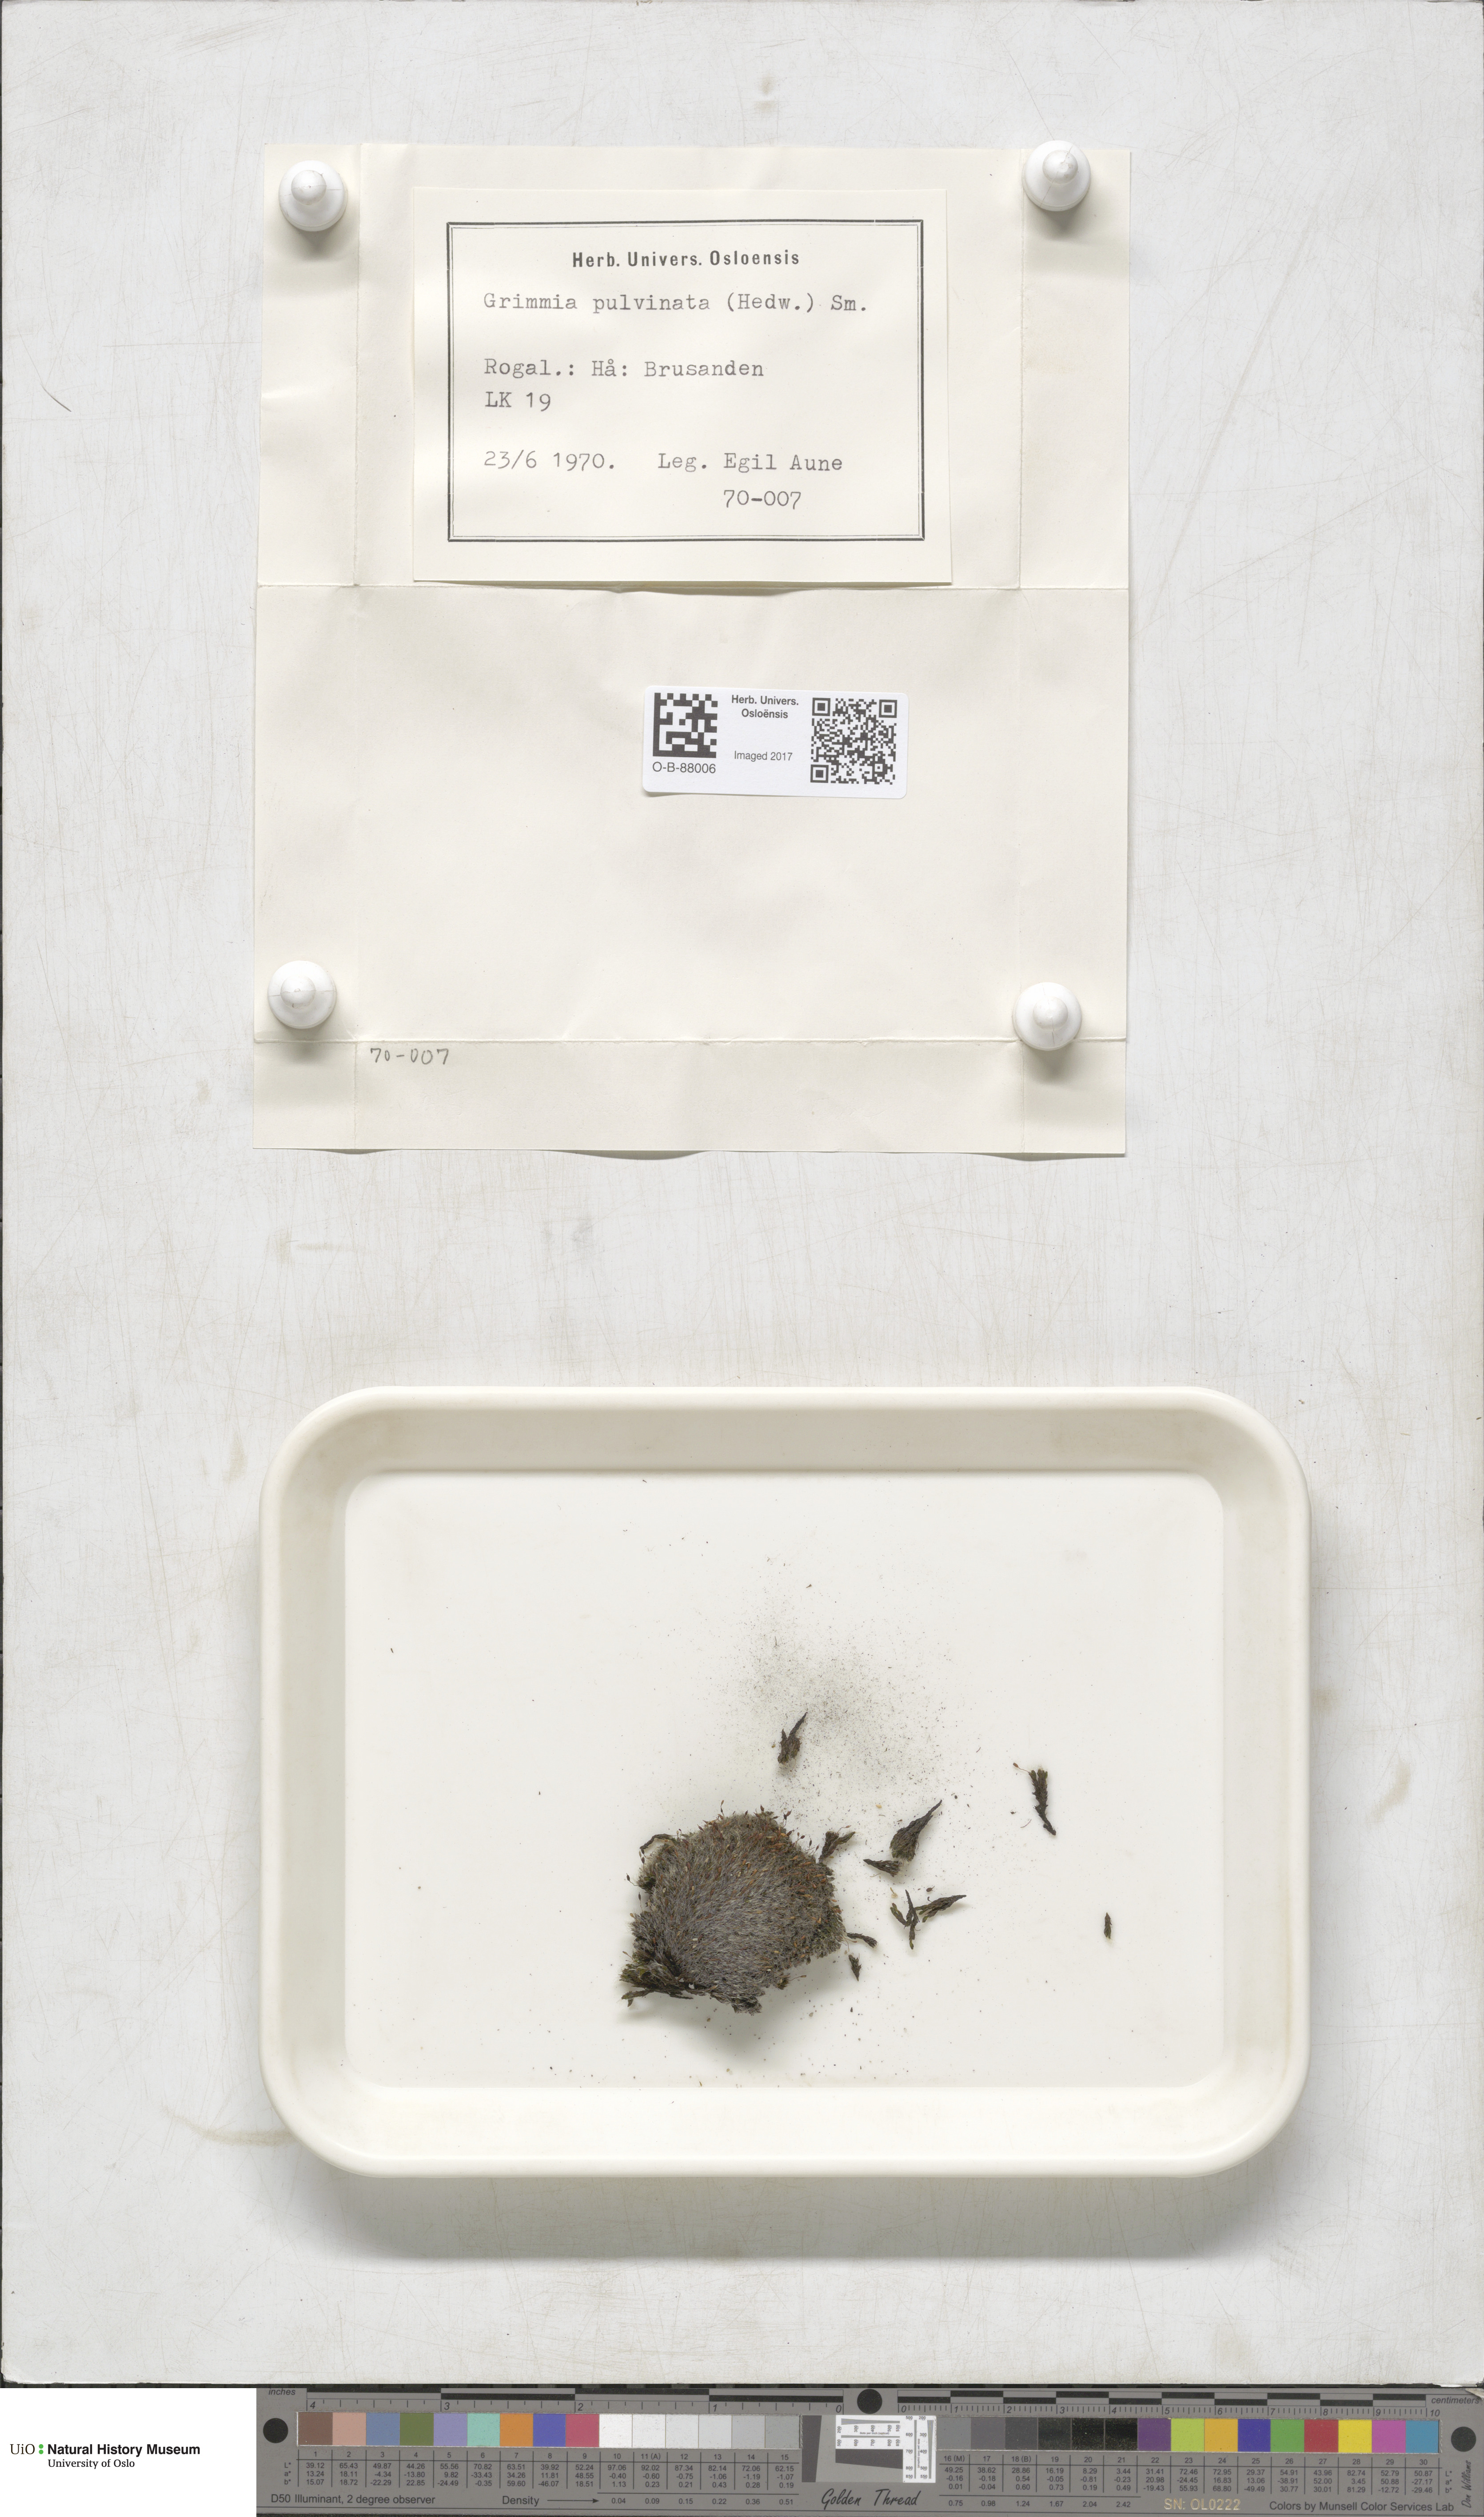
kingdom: Plantae
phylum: Bryophyta
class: Bryopsida
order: Grimmiales
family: Grimmiaceae
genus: Grimmia
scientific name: Grimmia pulvinata
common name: Grey-cushioned grimmia
